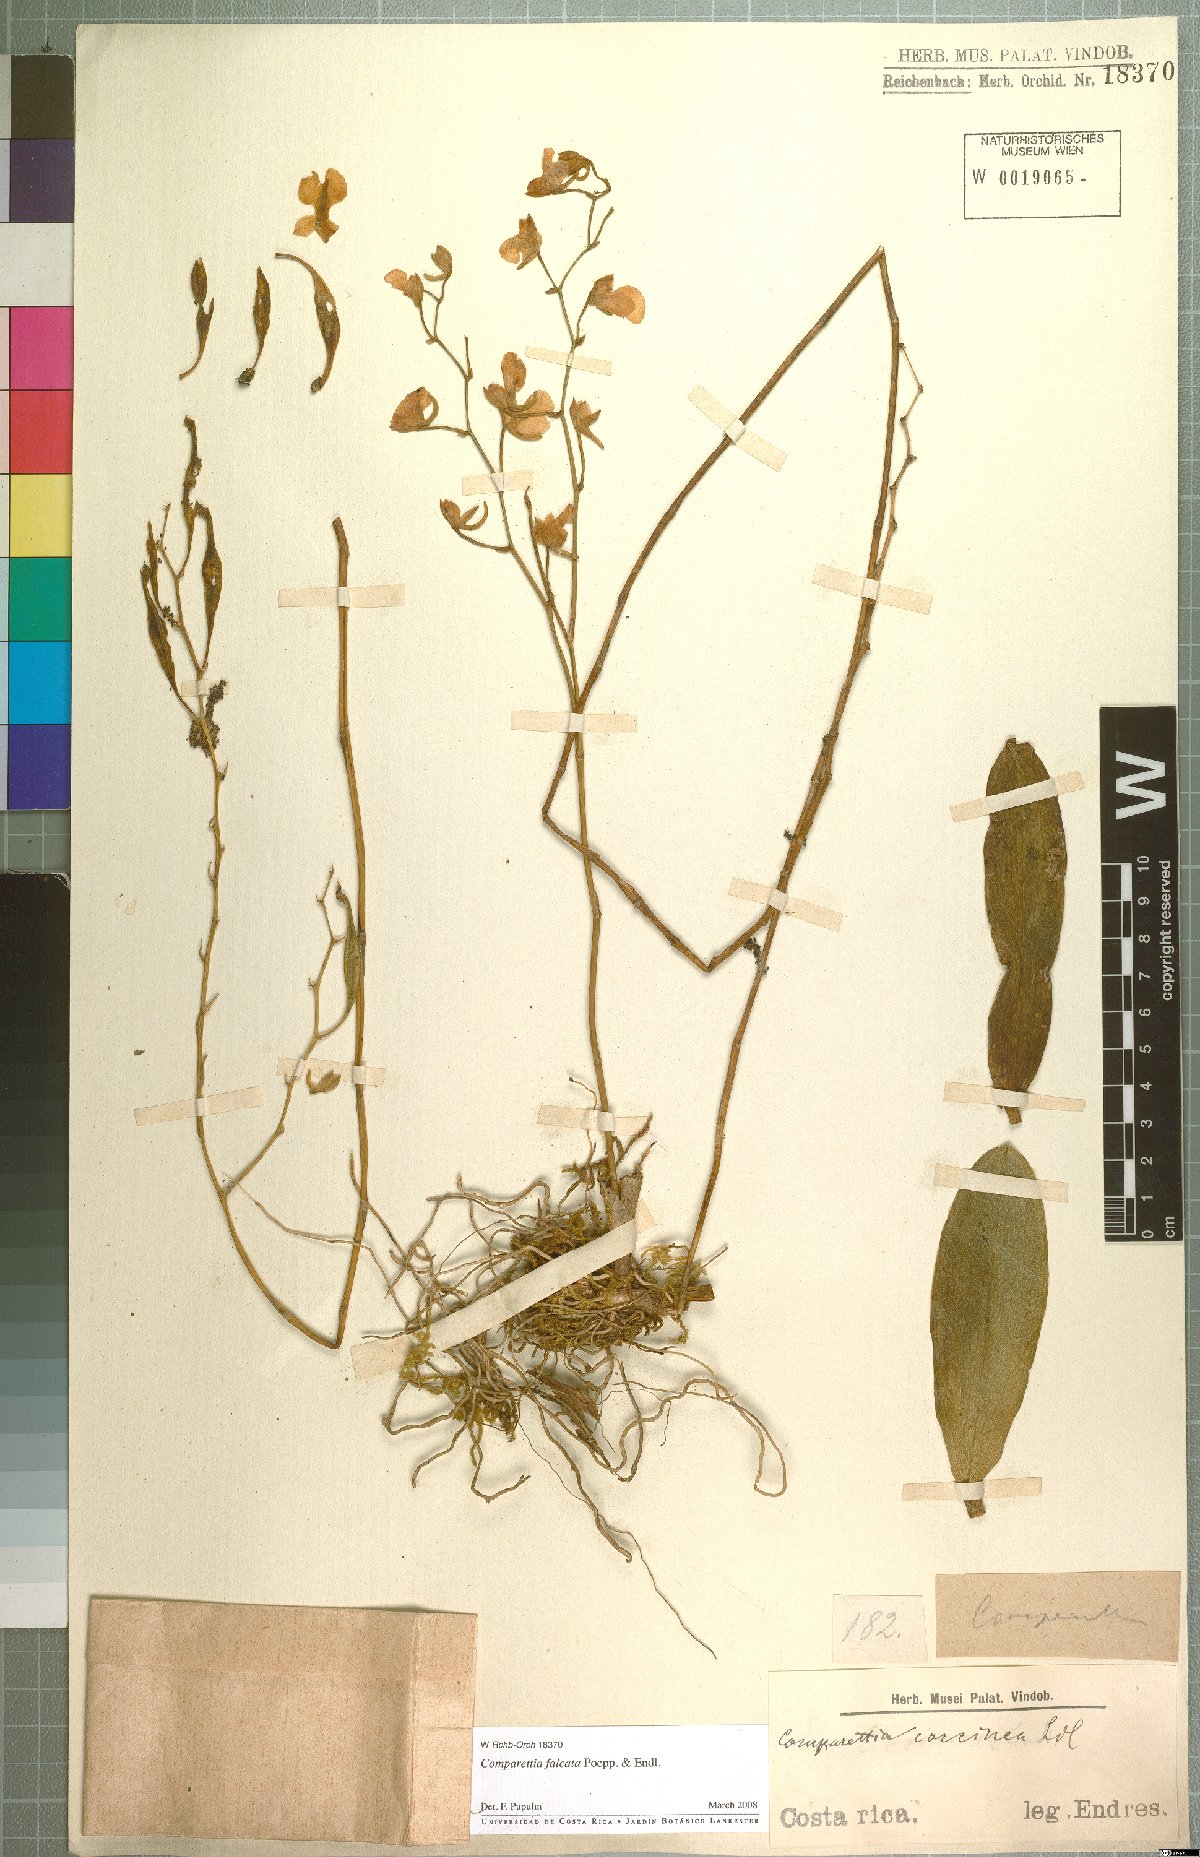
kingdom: Plantae
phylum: Tracheophyta
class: Liliopsida
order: Asparagales
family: Orchidaceae
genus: Comparettia
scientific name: Comparettia falcata
